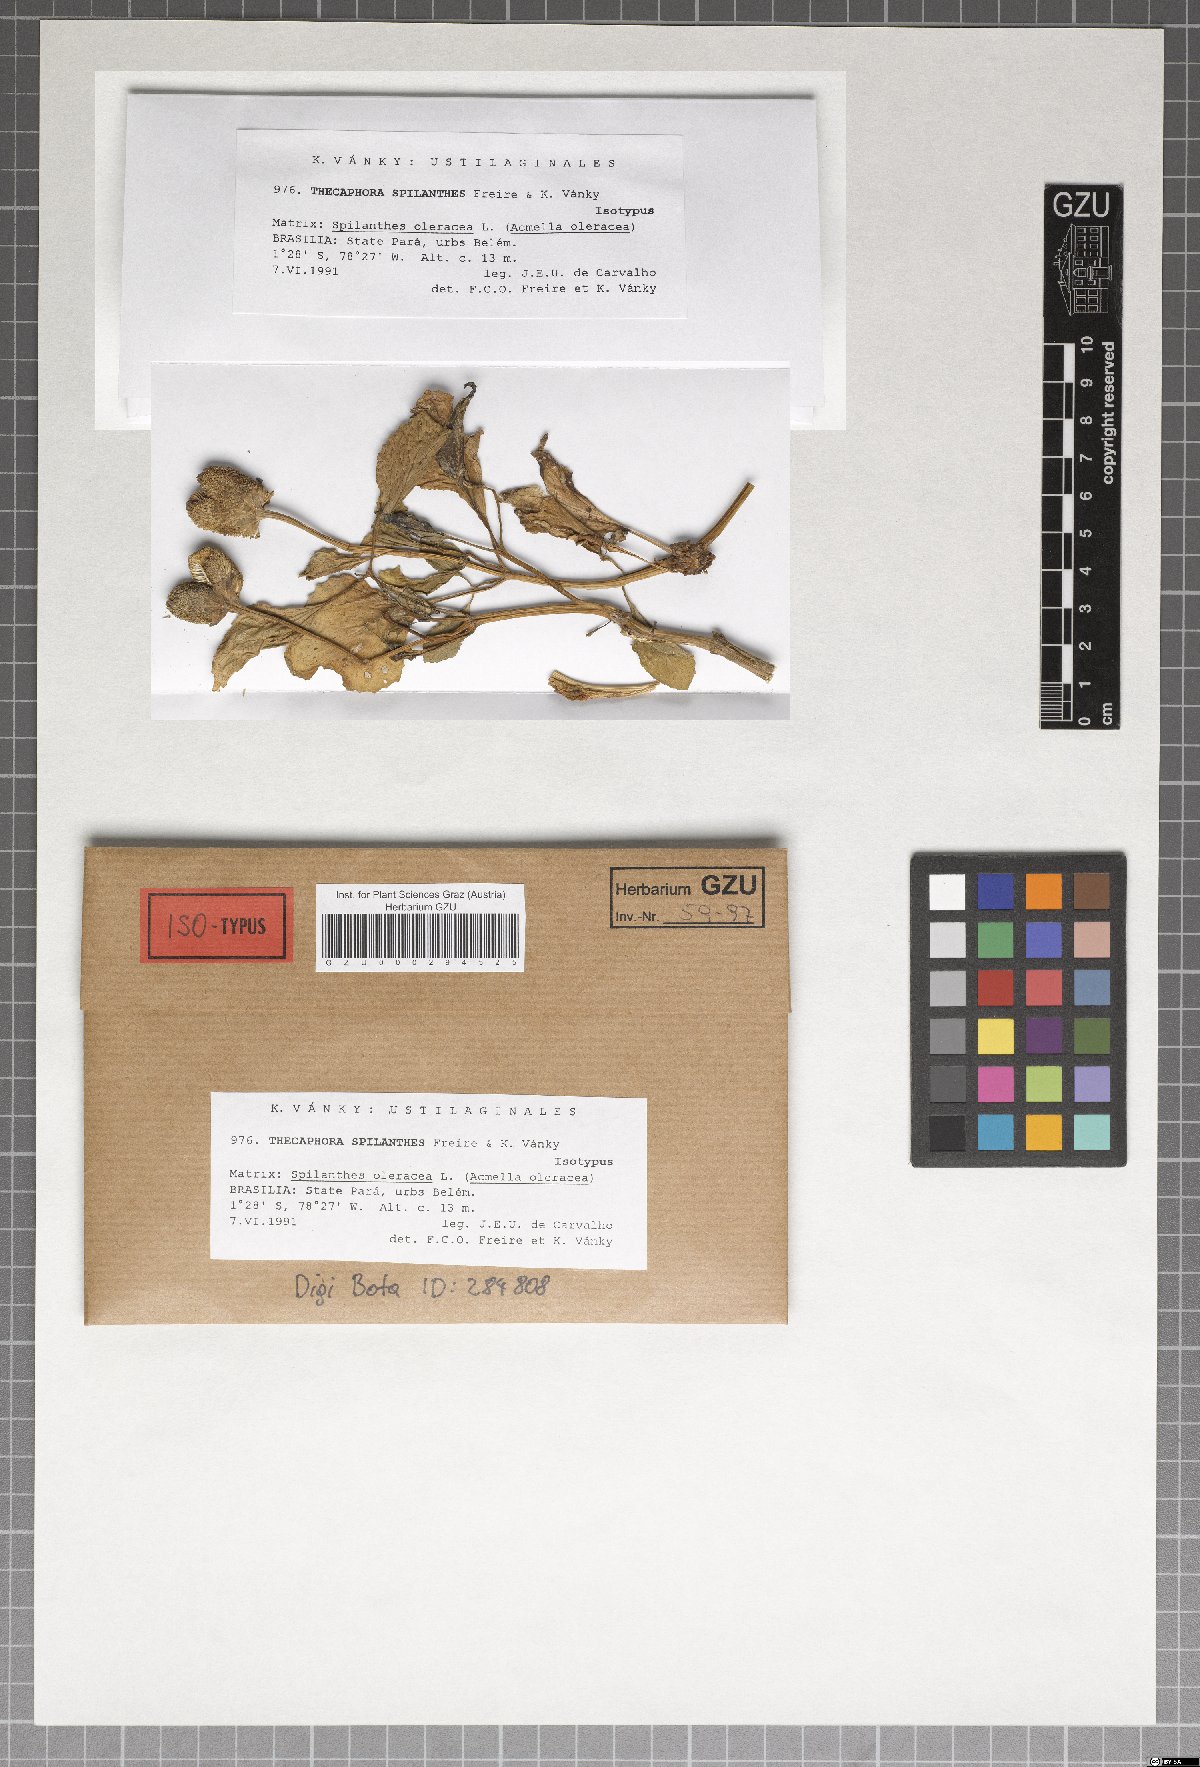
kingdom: Fungi
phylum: Basidiomycota
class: Ustilaginomycetes
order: Urocystidales
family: Glomosporiaceae
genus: Thecaphora
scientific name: Thecaphora spilanthis
